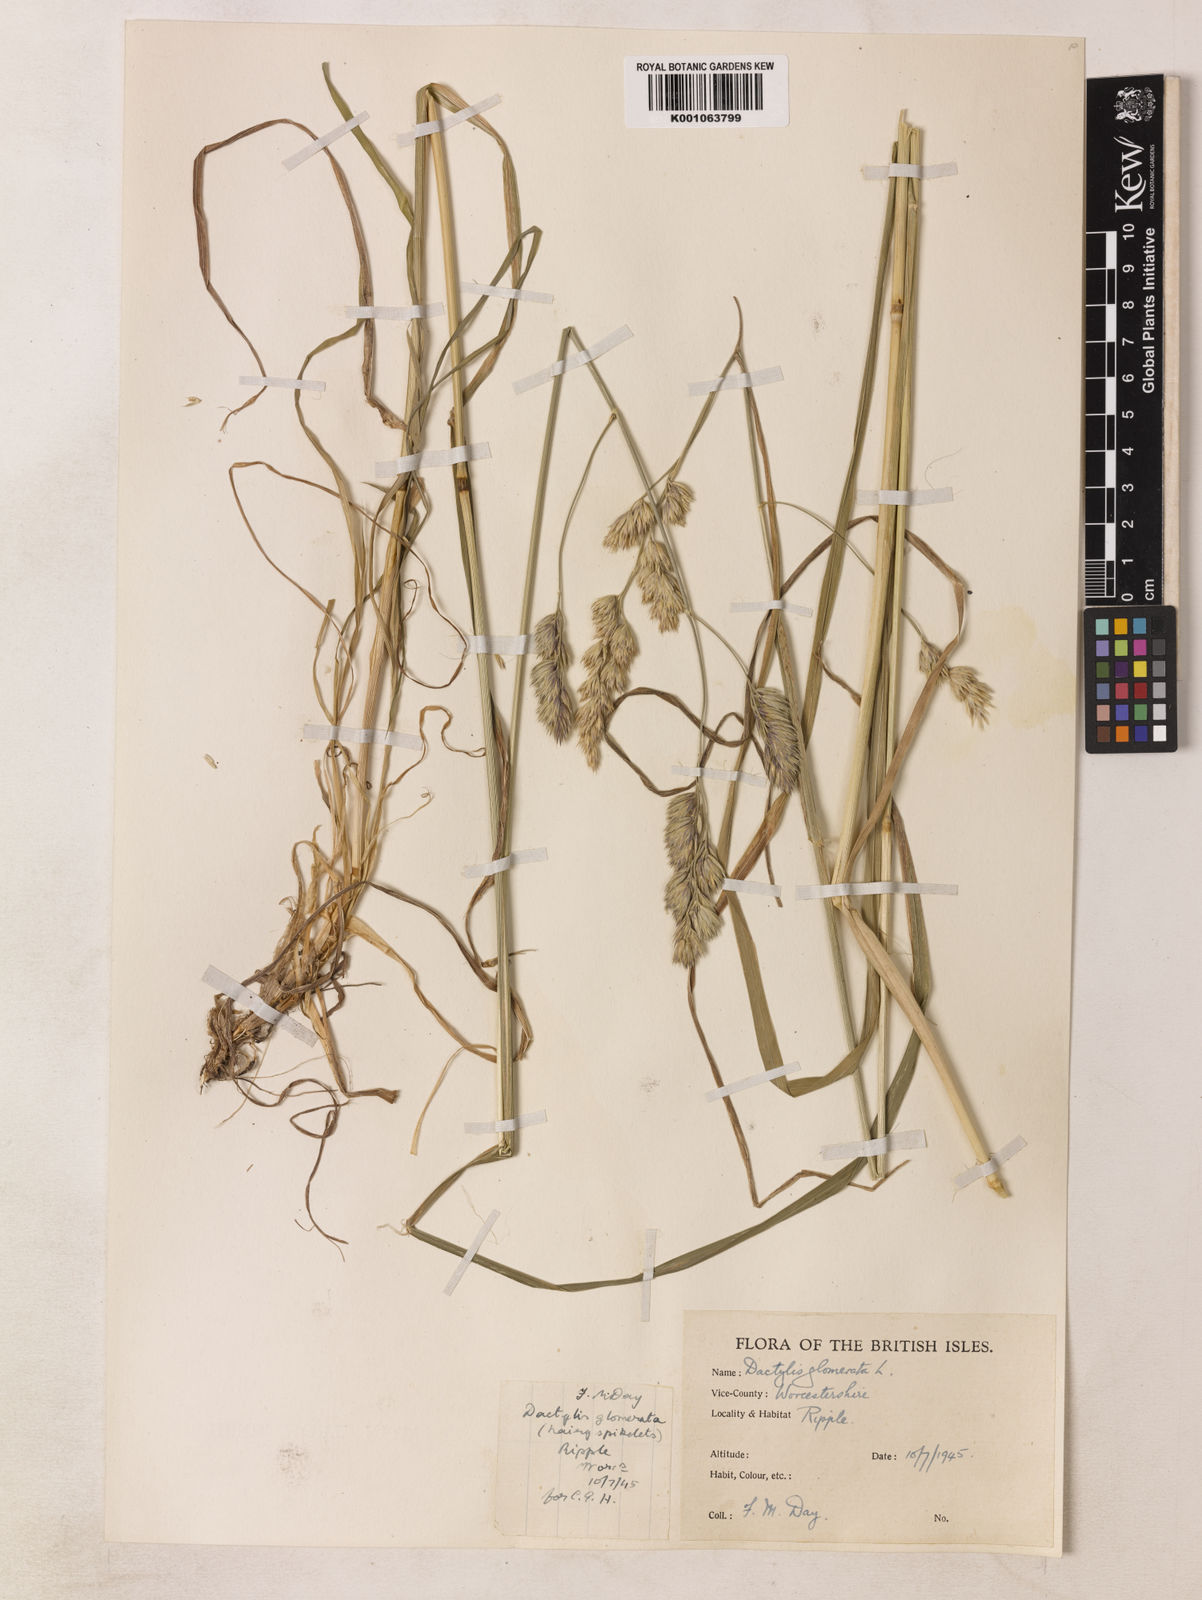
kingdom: Plantae
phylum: Tracheophyta
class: Liliopsida
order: Poales
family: Poaceae
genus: Dactylis
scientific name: Dactylis glomerata
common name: Orchardgrass
